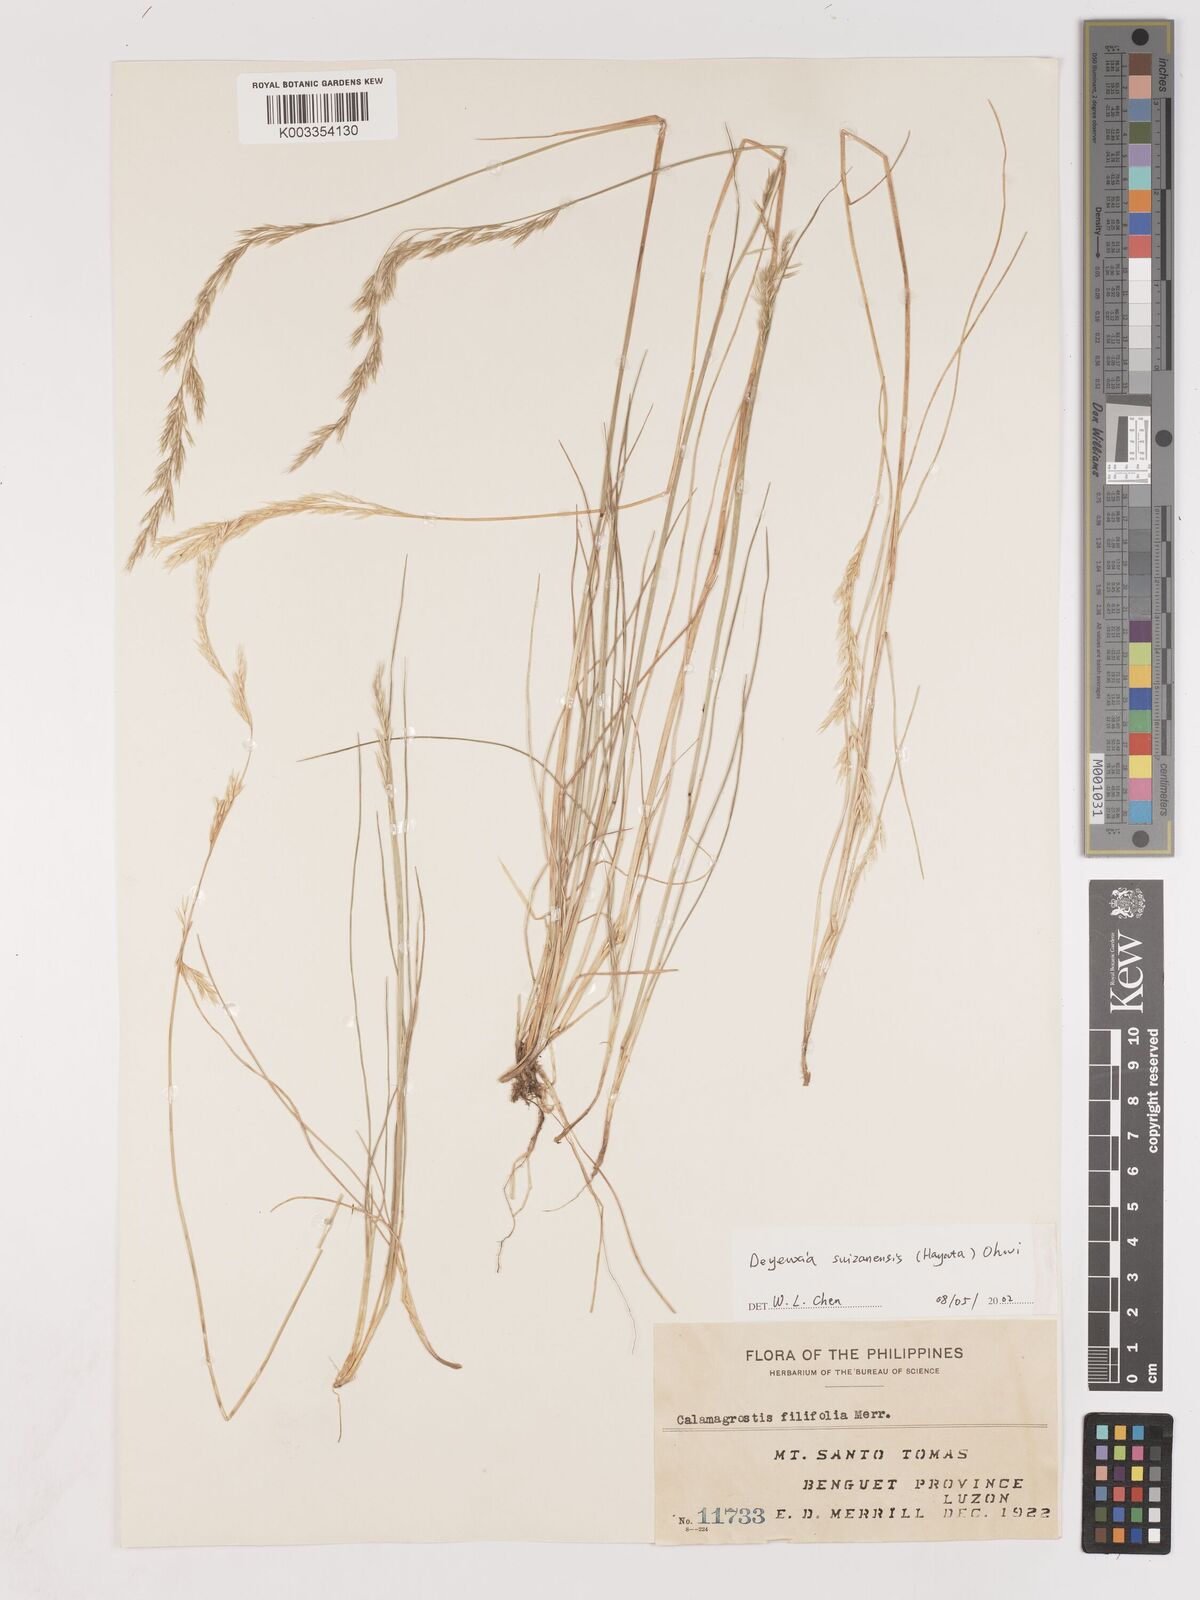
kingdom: Plantae
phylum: Tracheophyta
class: Liliopsida
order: Poales
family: Poaceae
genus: Calamagrostis
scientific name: Calamagrostis filifolia
